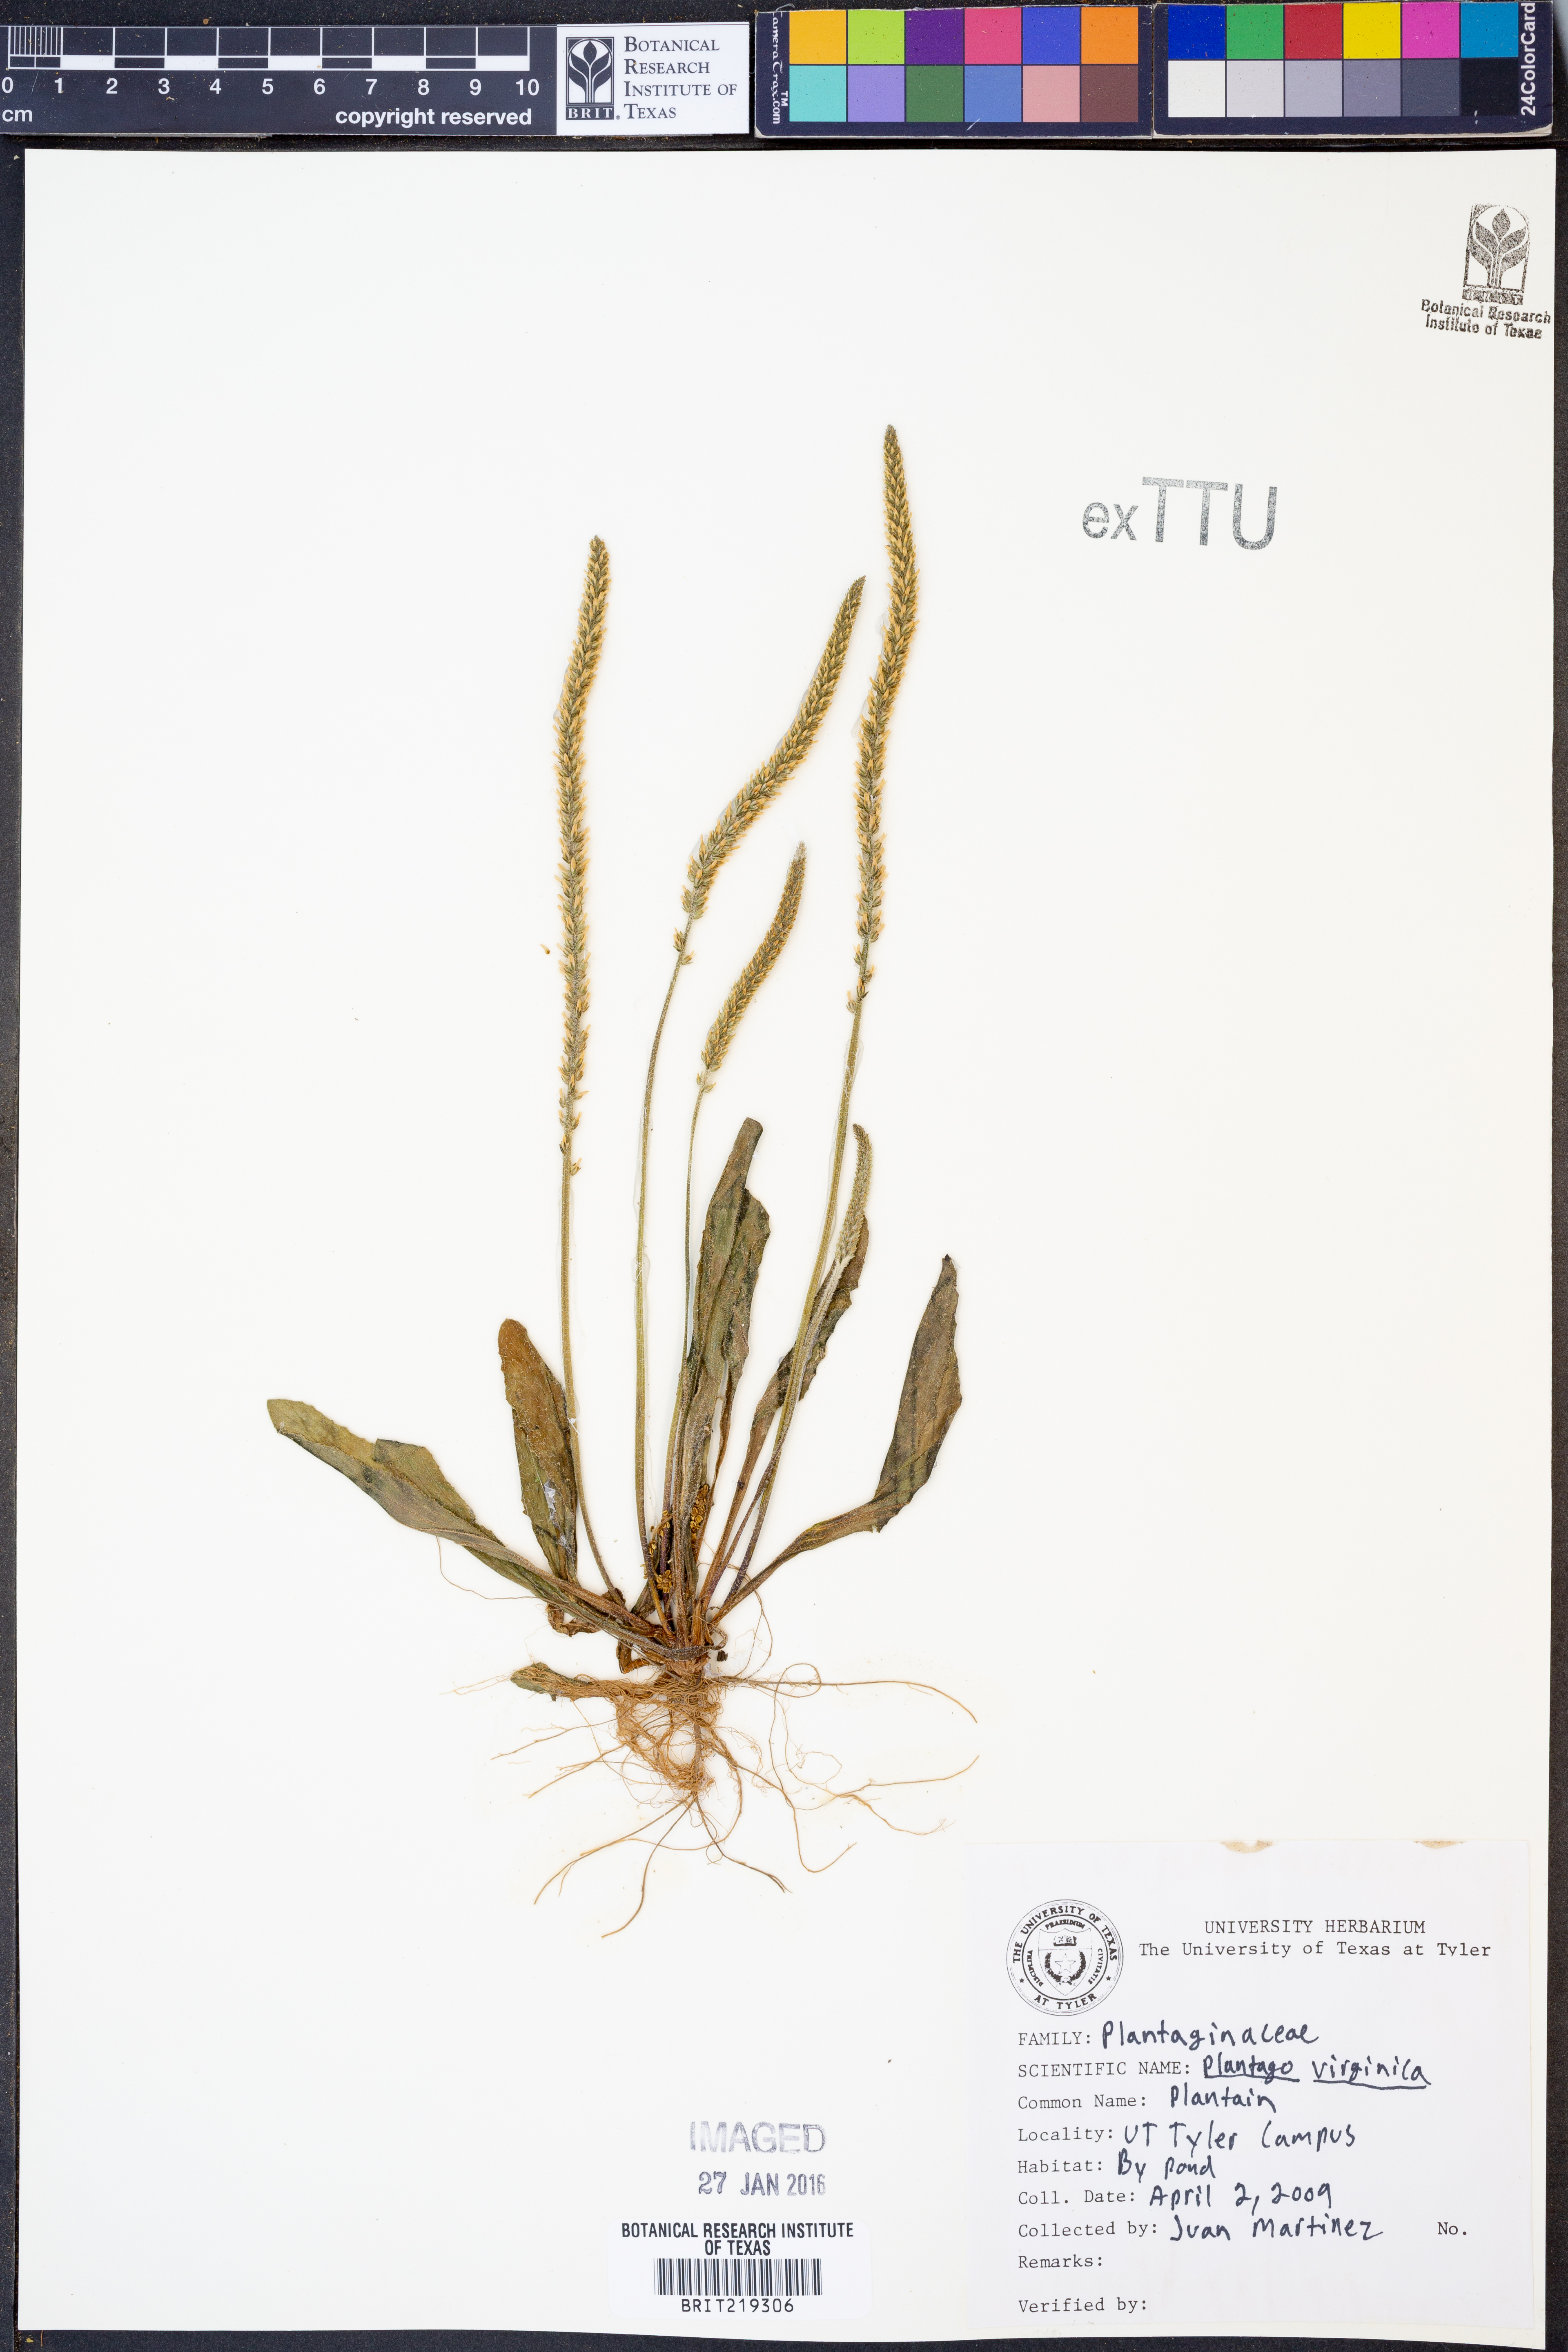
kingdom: Plantae
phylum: Tracheophyta
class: Magnoliopsida
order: Lamiales
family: Plantaginaceae
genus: Plantago
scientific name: Plantago virginica
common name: Hoary plantain
